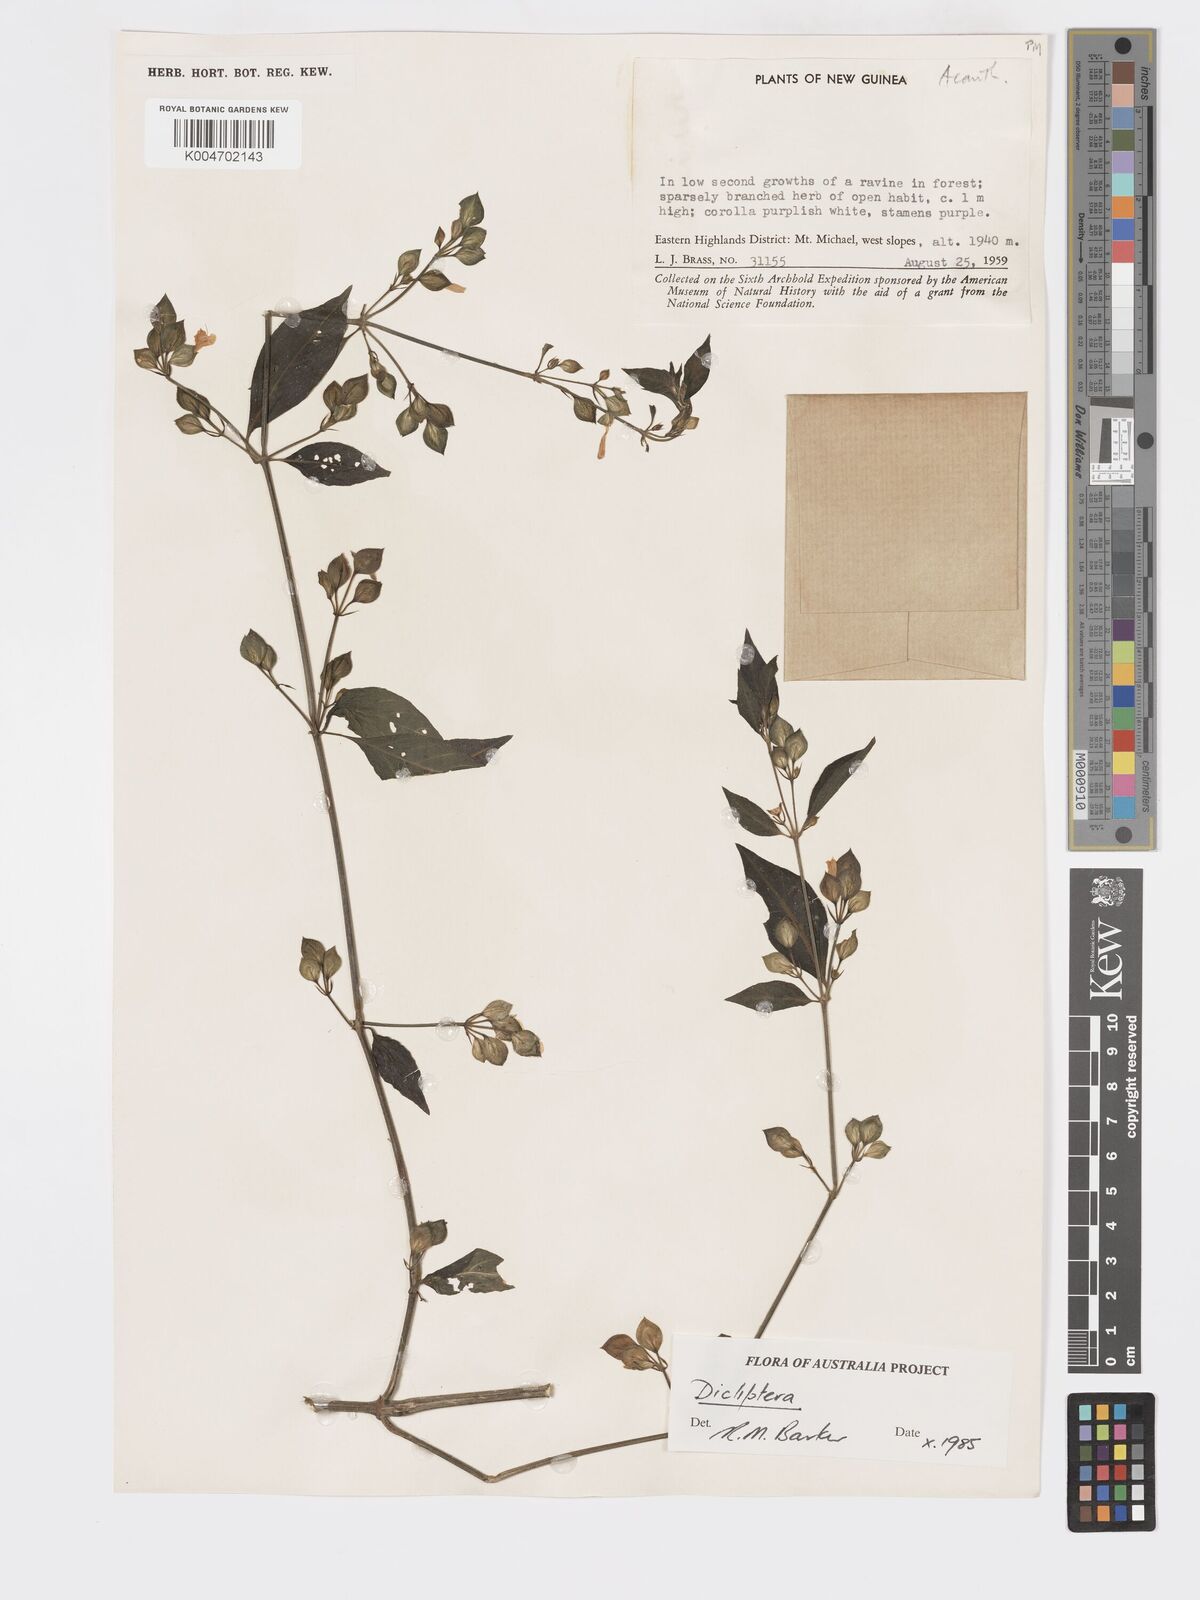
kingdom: Plantae
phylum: Tracheophyta
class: Magnoliopsida
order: Lamiales
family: Acanthaceae
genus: Dicliptera
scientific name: Dicliptera
